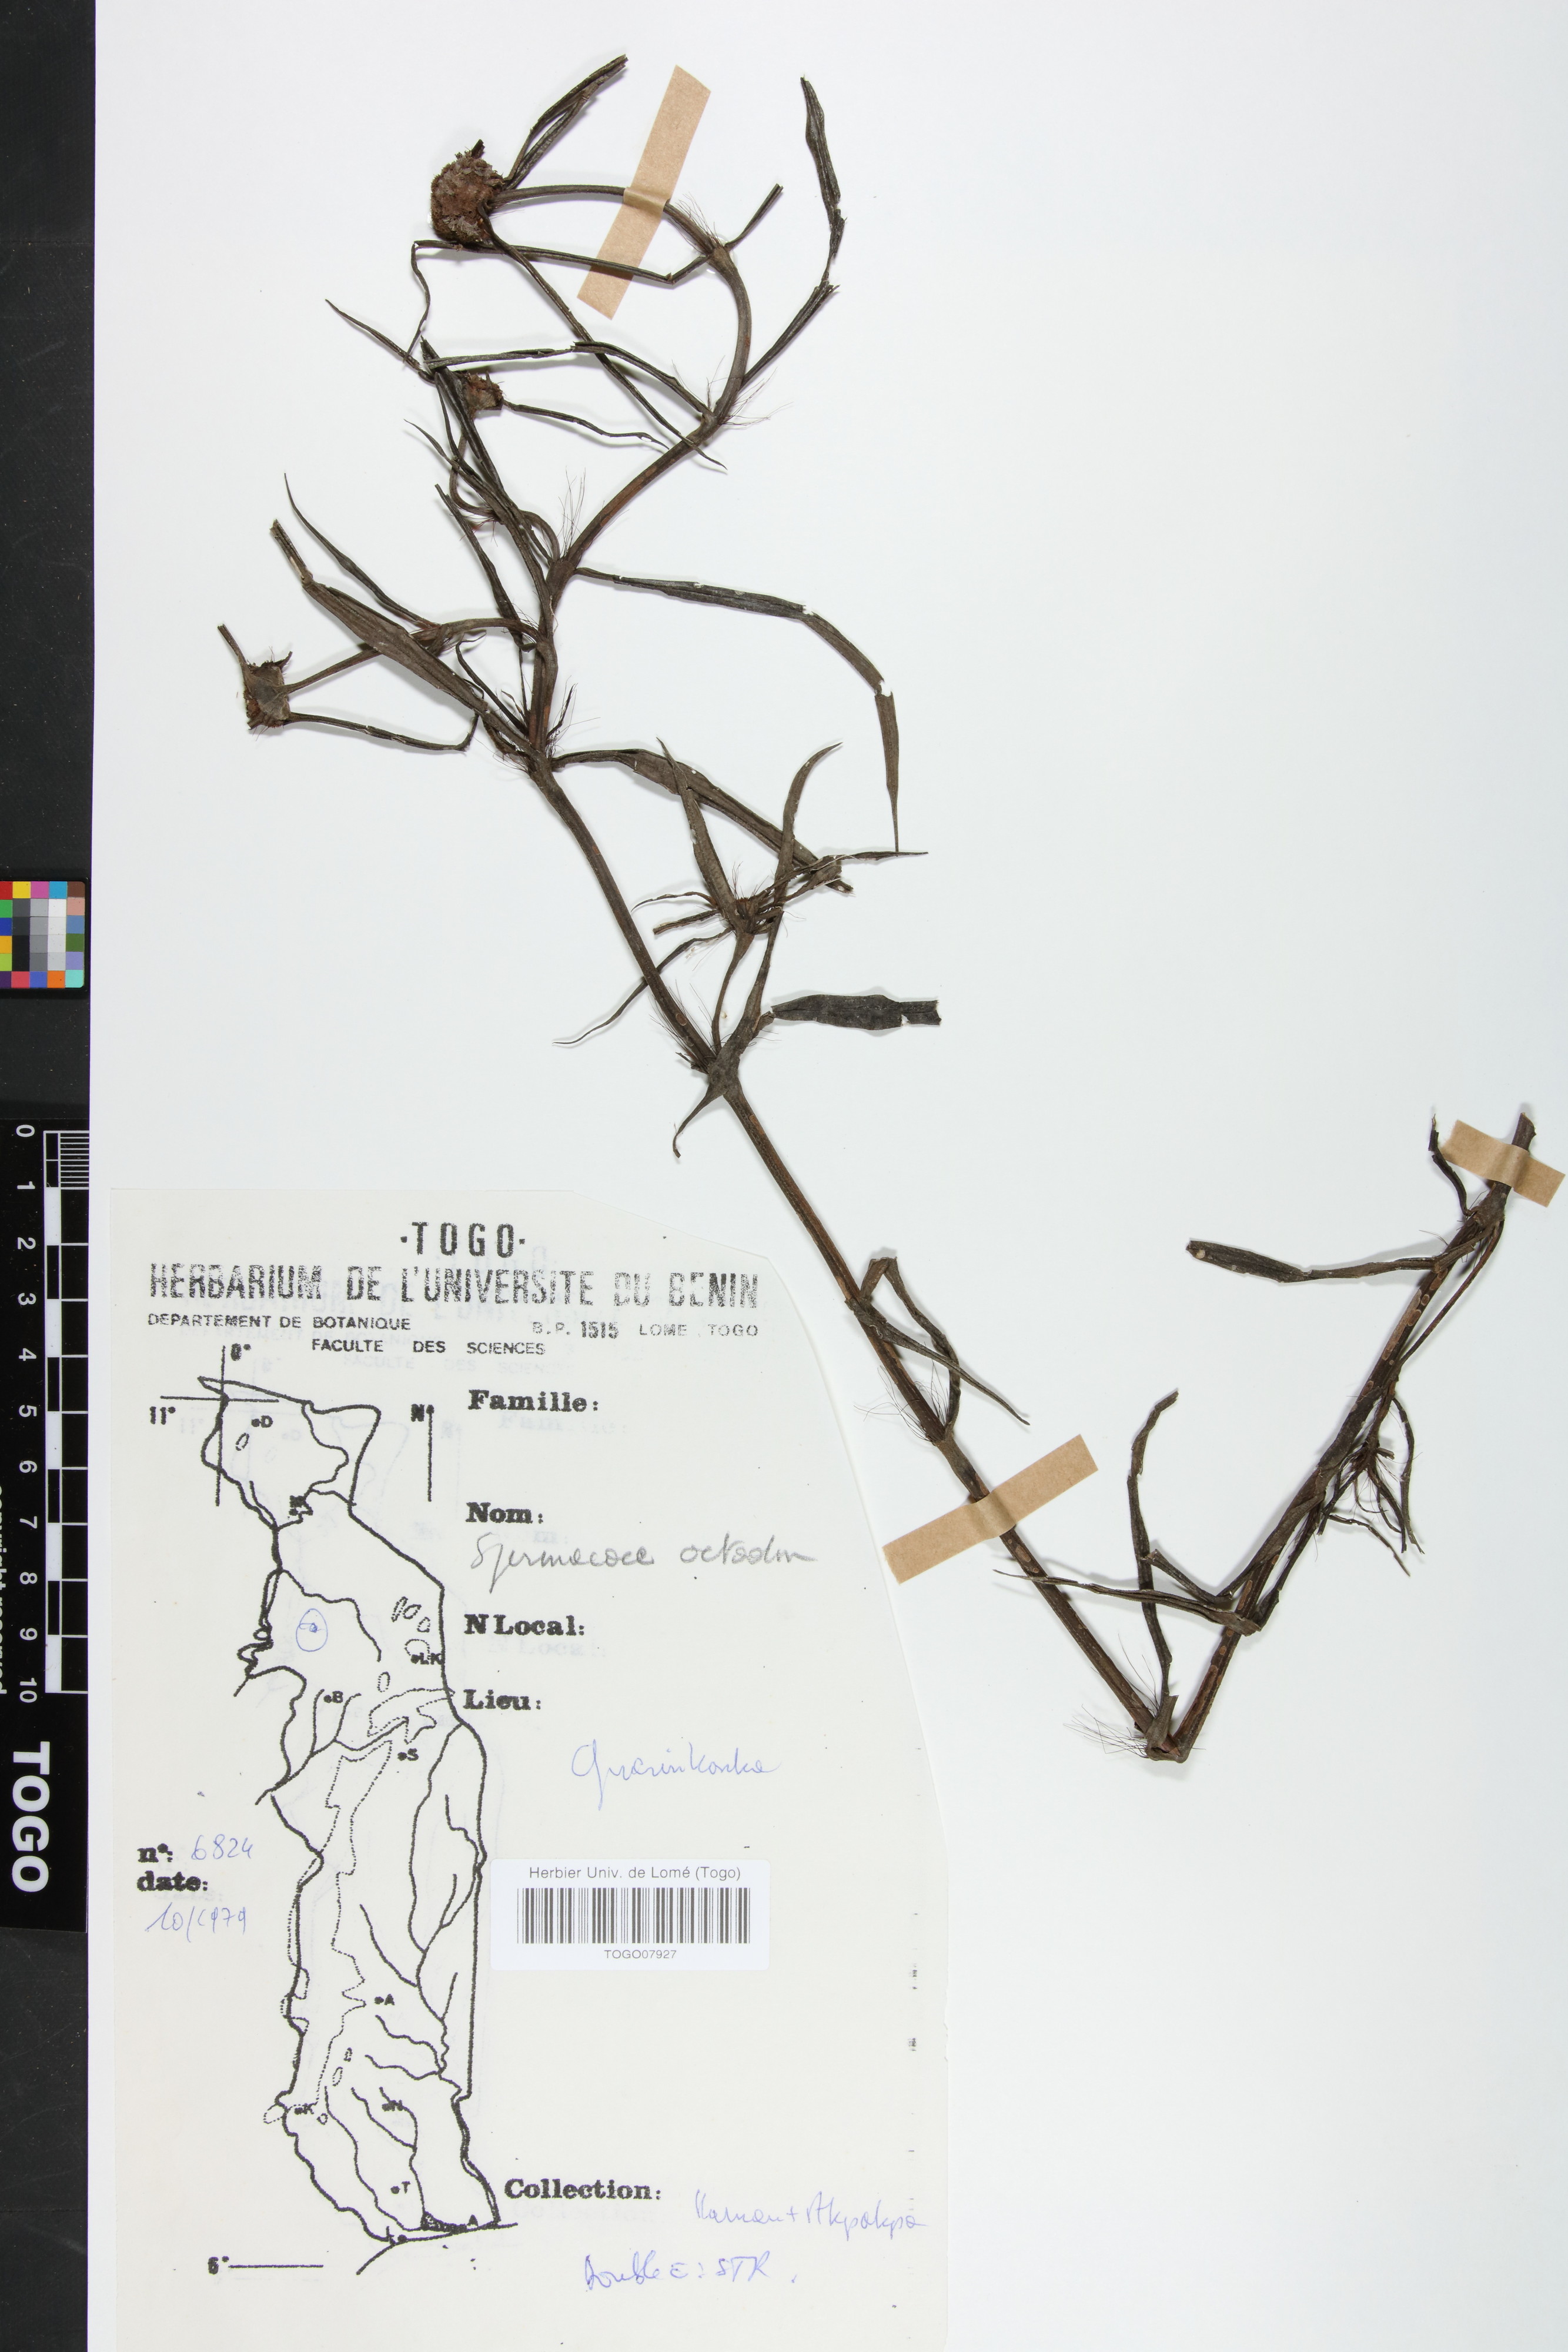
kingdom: Plantae
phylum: Tracheophyta
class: Magnoliopsida
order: Gentianales
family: Rubiaceae
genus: Spermacoce
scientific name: Spermacoce octodon
